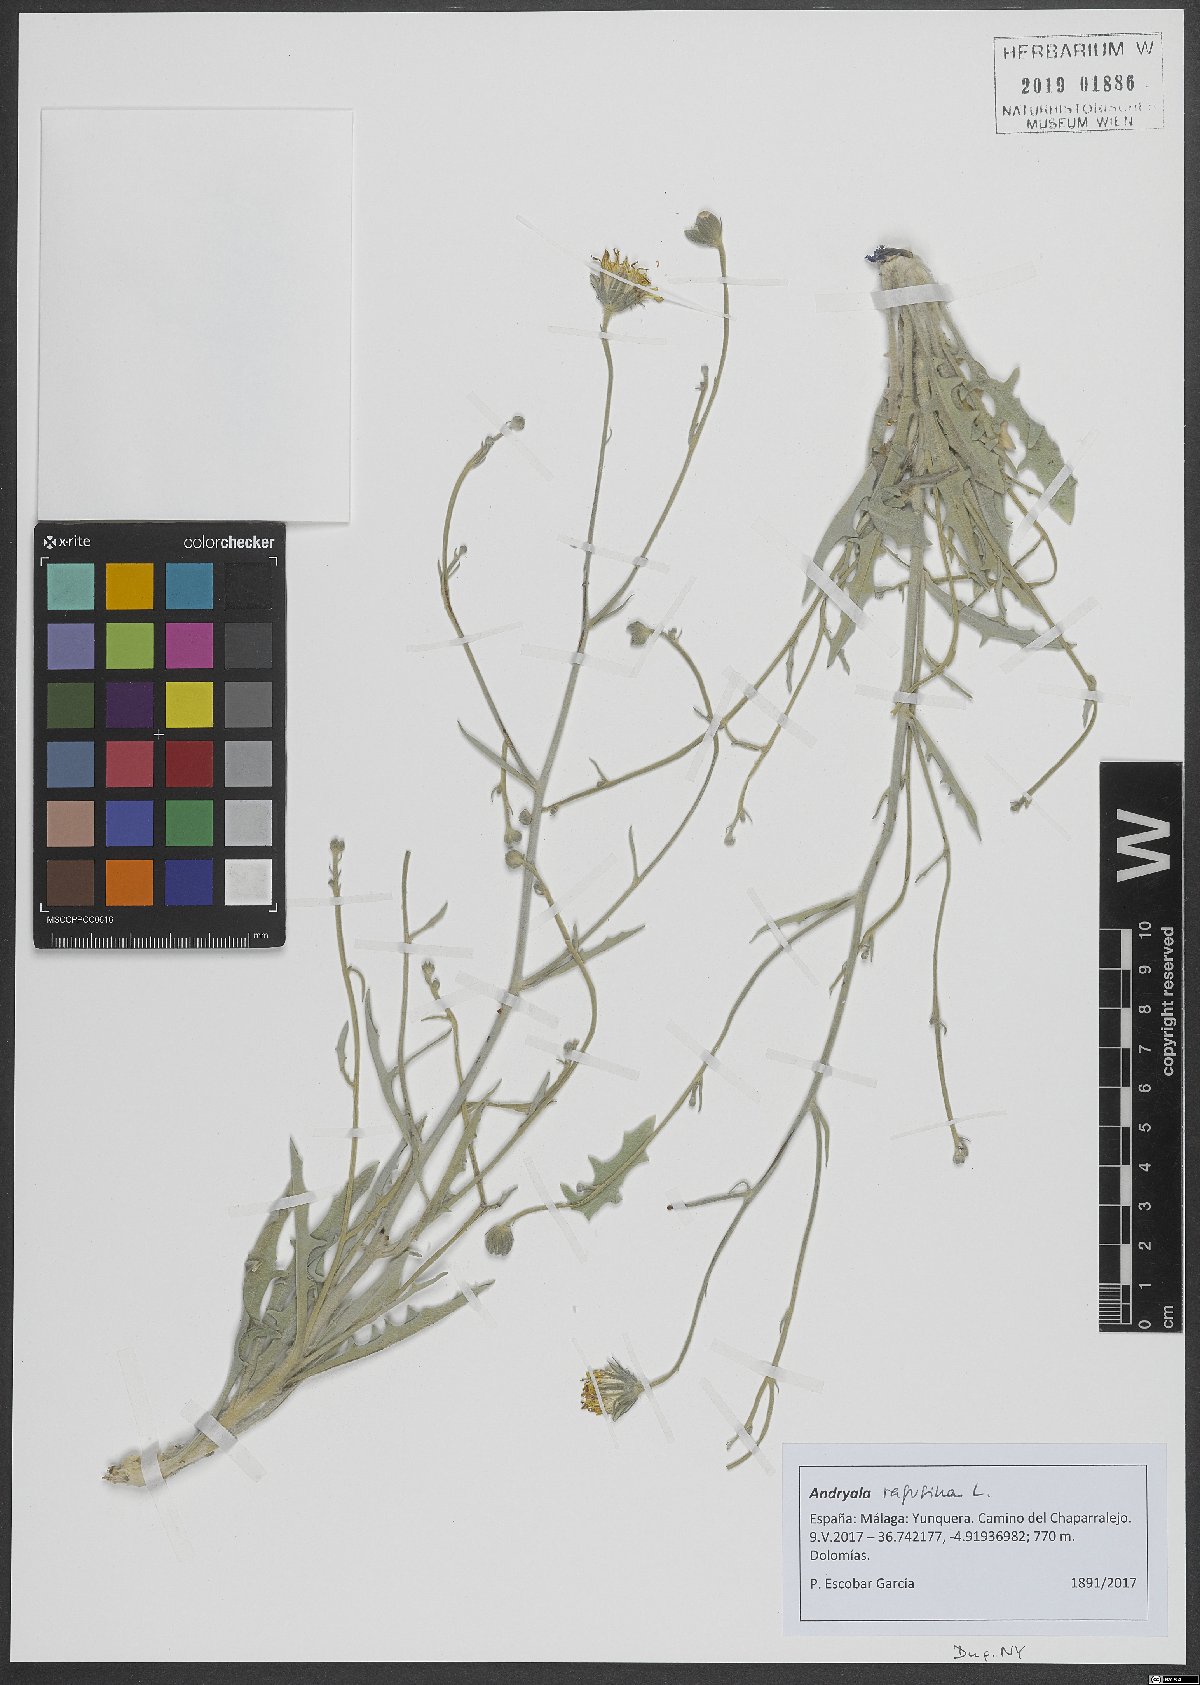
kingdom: Plantae
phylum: Tracheophyta
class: Magnoliopsida
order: Asterales
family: Asteraceae
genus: Andryala
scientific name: Andryala ragusina
